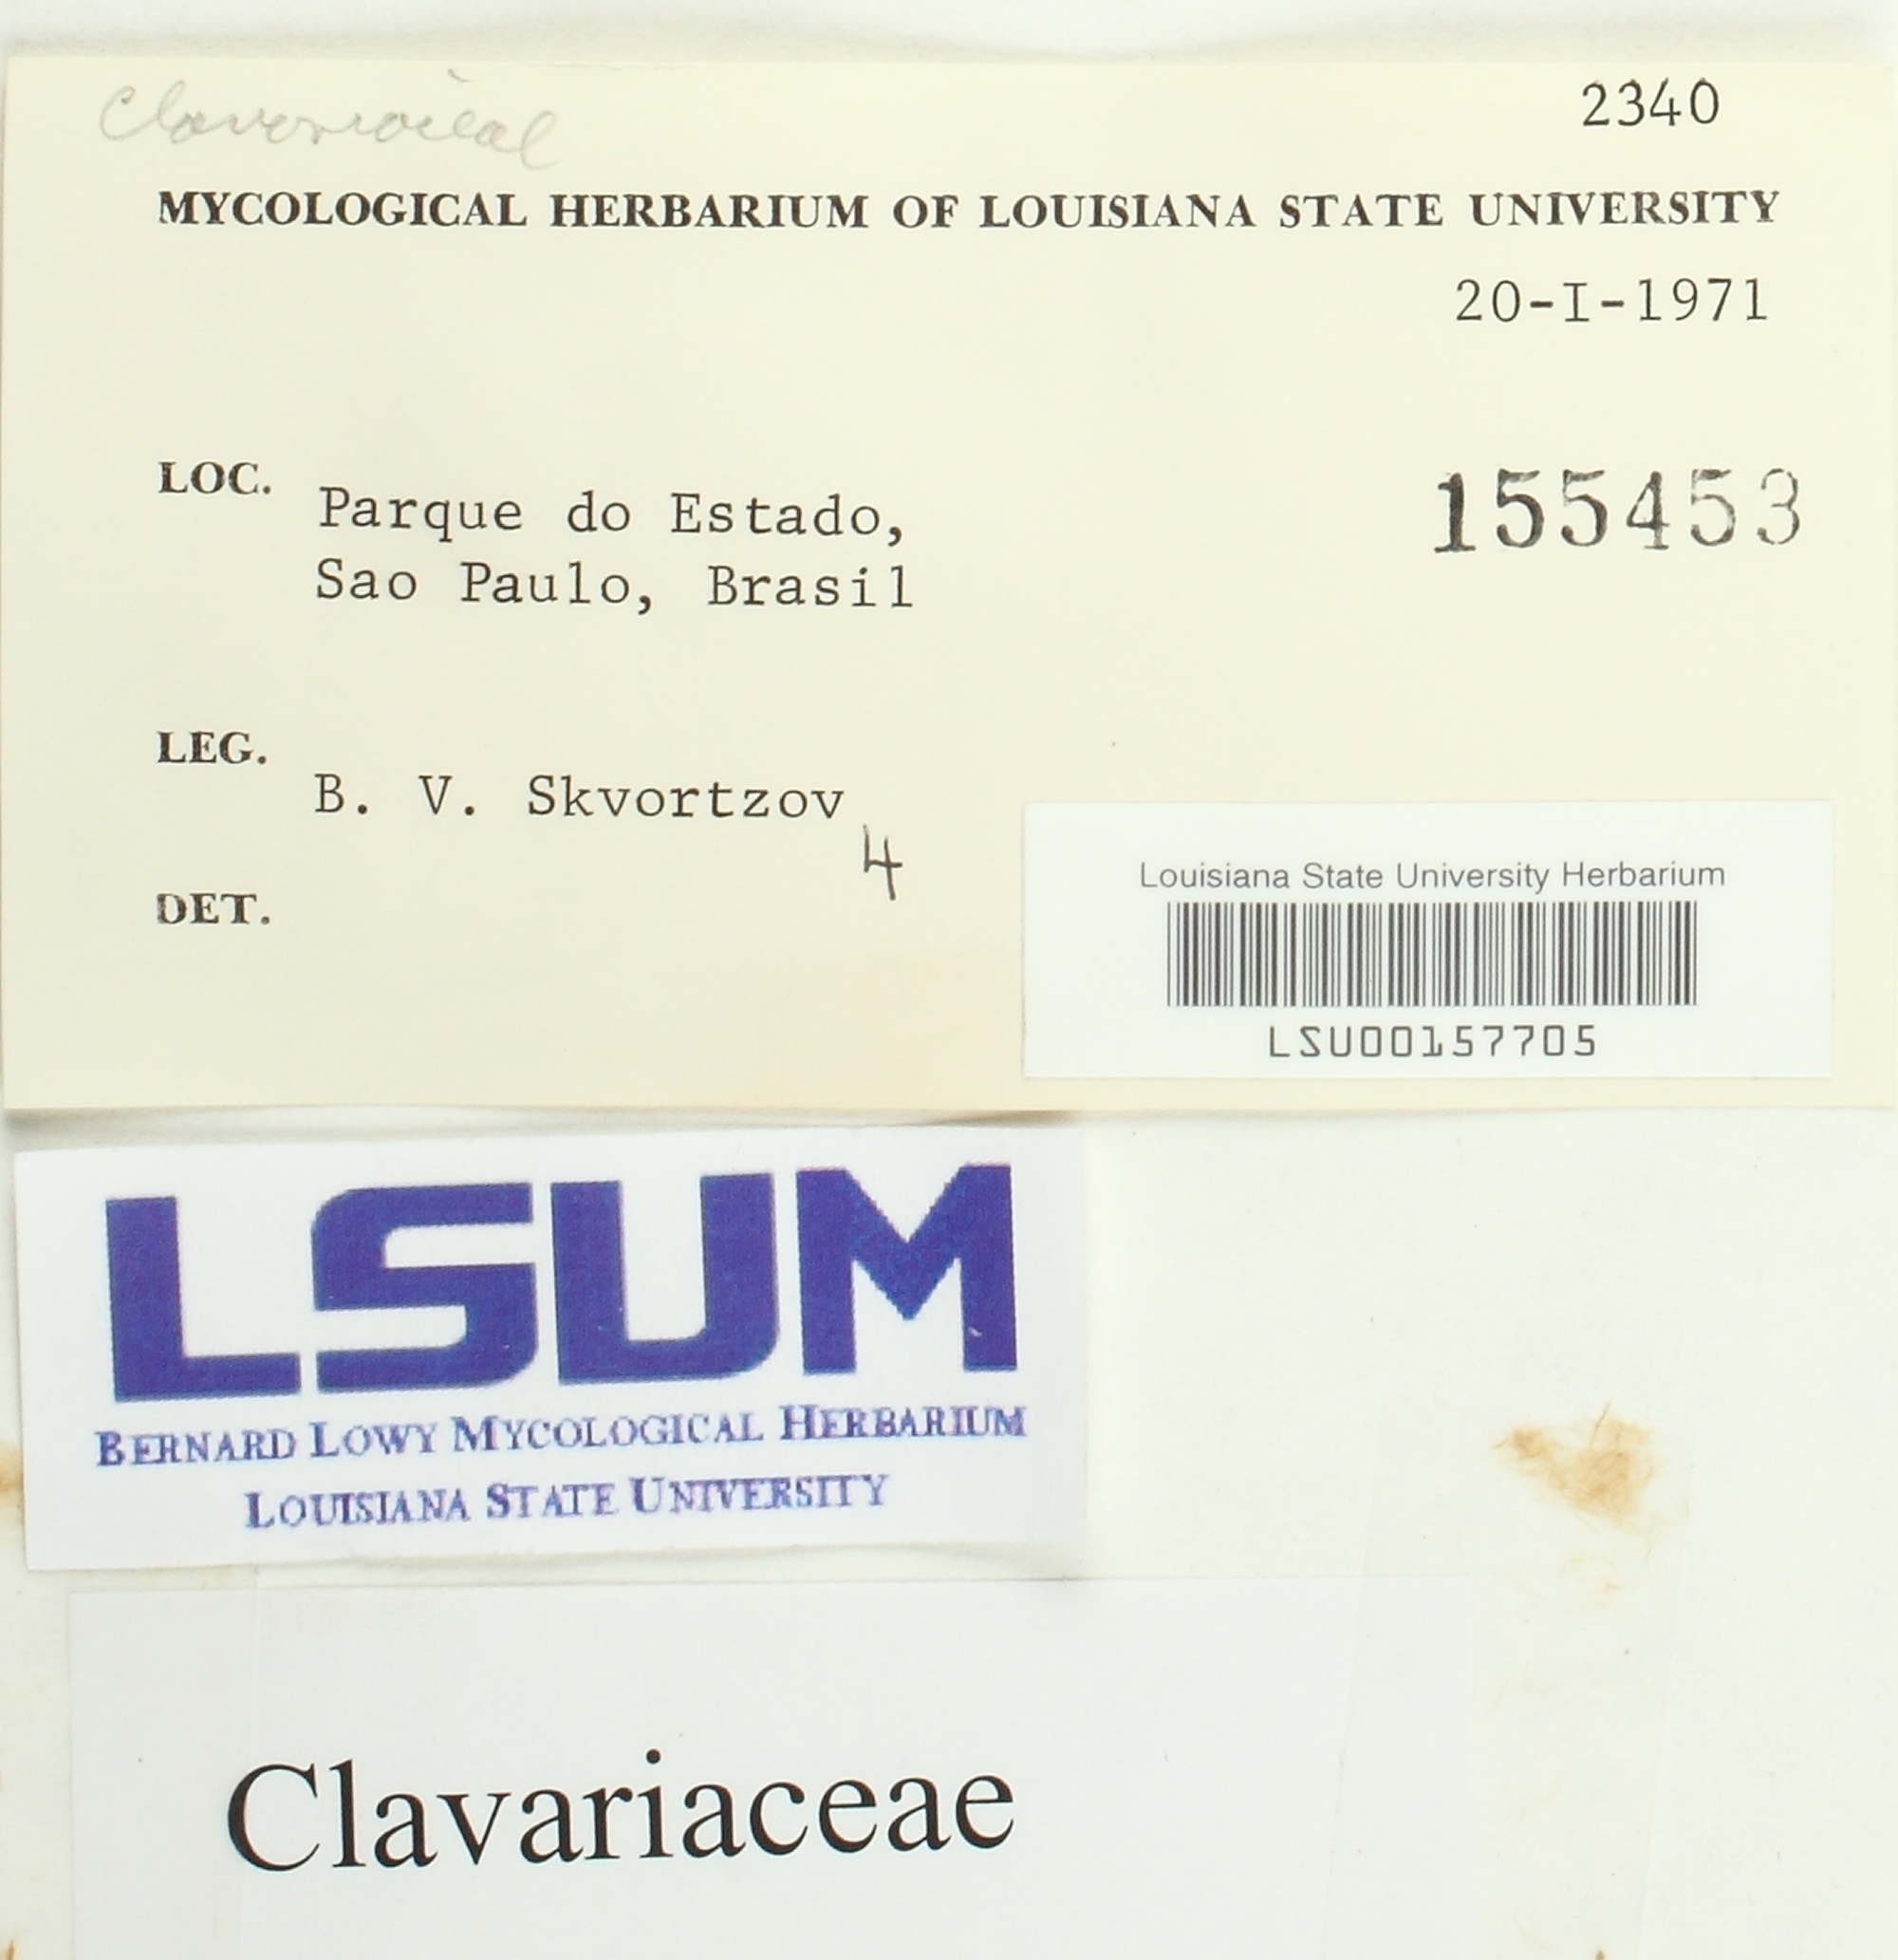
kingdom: Fungi
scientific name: Fungi
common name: Fungi
